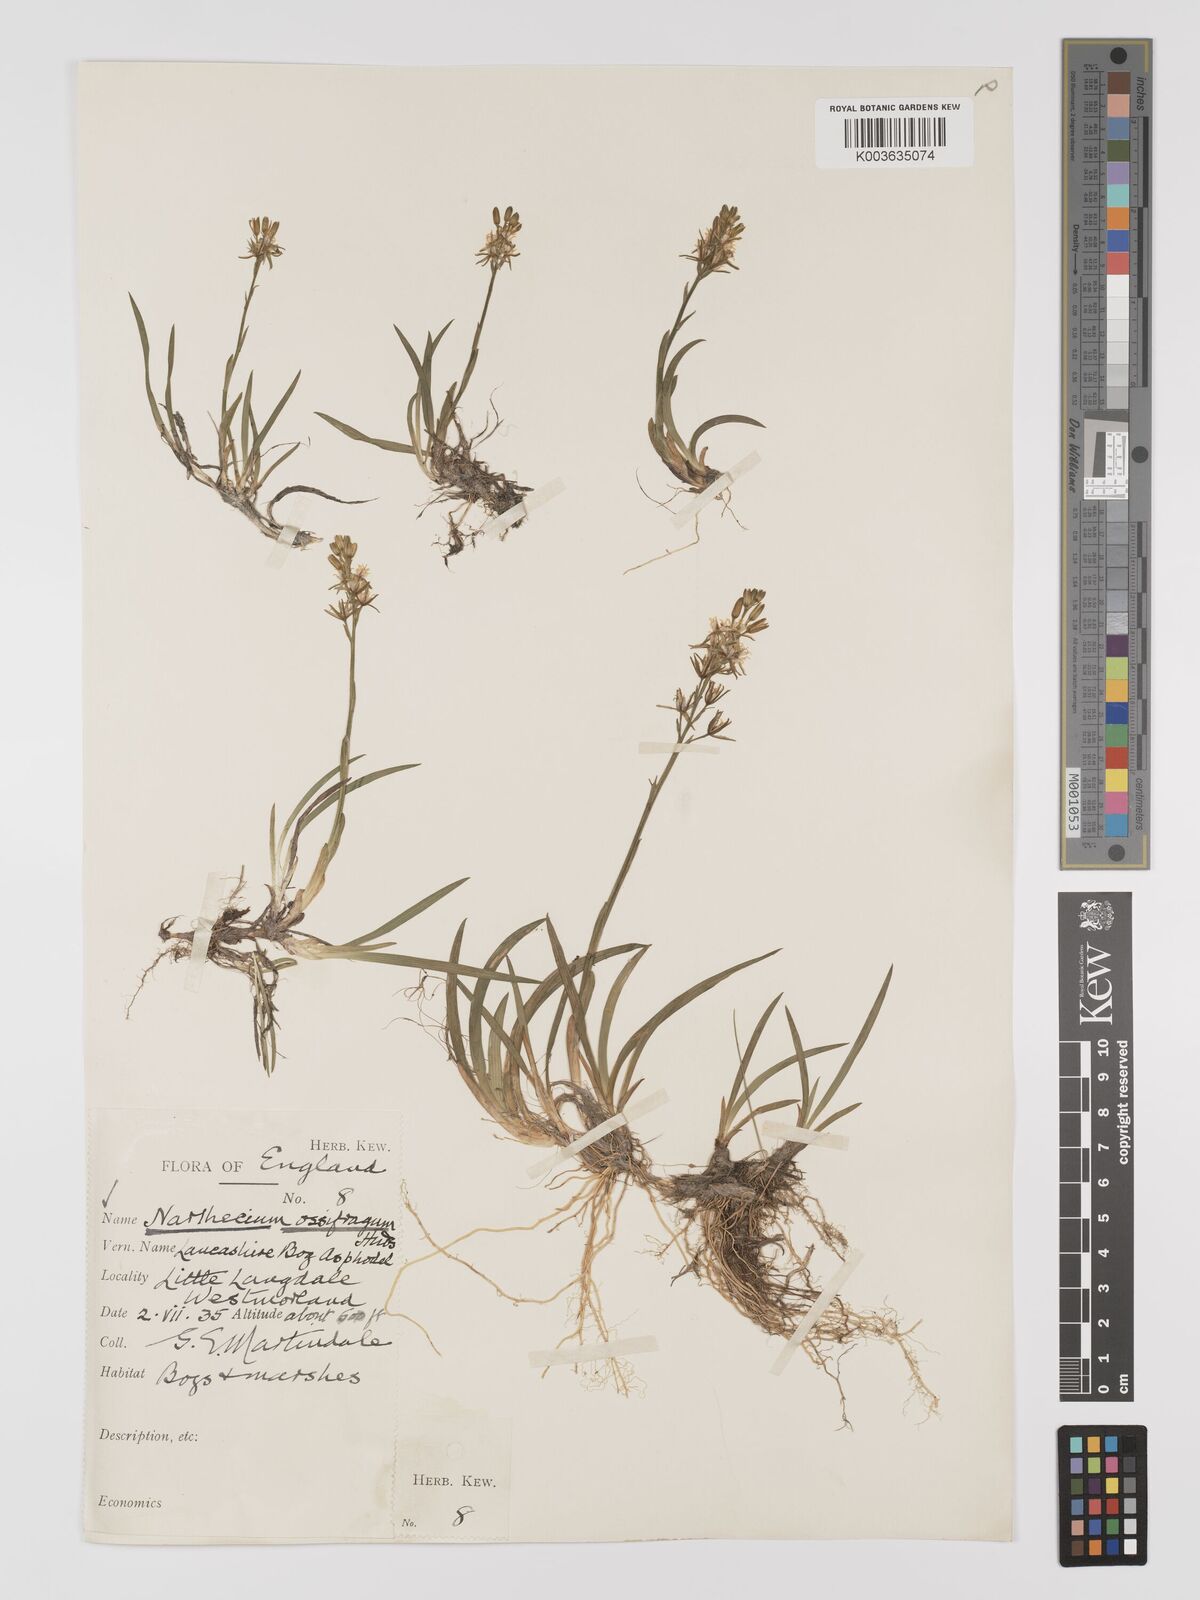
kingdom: Plantae
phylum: Tracheophyta
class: Liliopsida
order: Dioscoreales
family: Nartheciaceae
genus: Narthecium
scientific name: Narthecium
